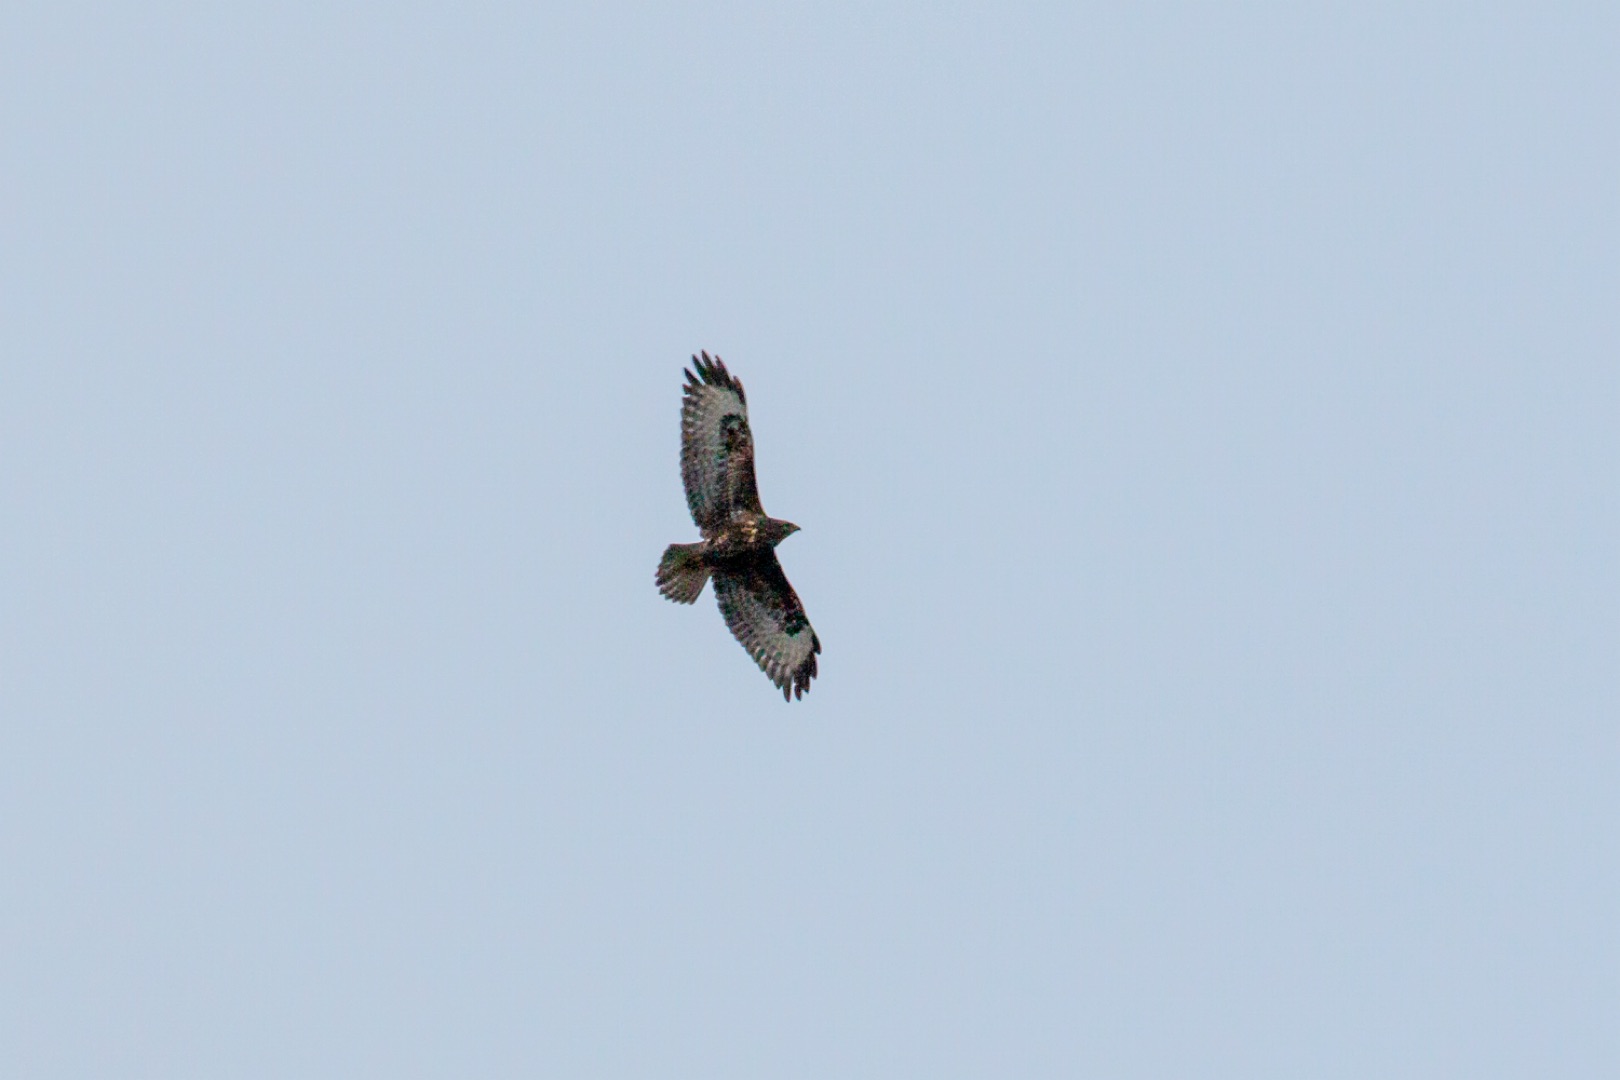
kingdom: Animalia
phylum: Chordata
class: Aves
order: Accipitriformes
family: Accipitridae
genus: Buteo
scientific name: Buteo buteo
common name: Musvåge
